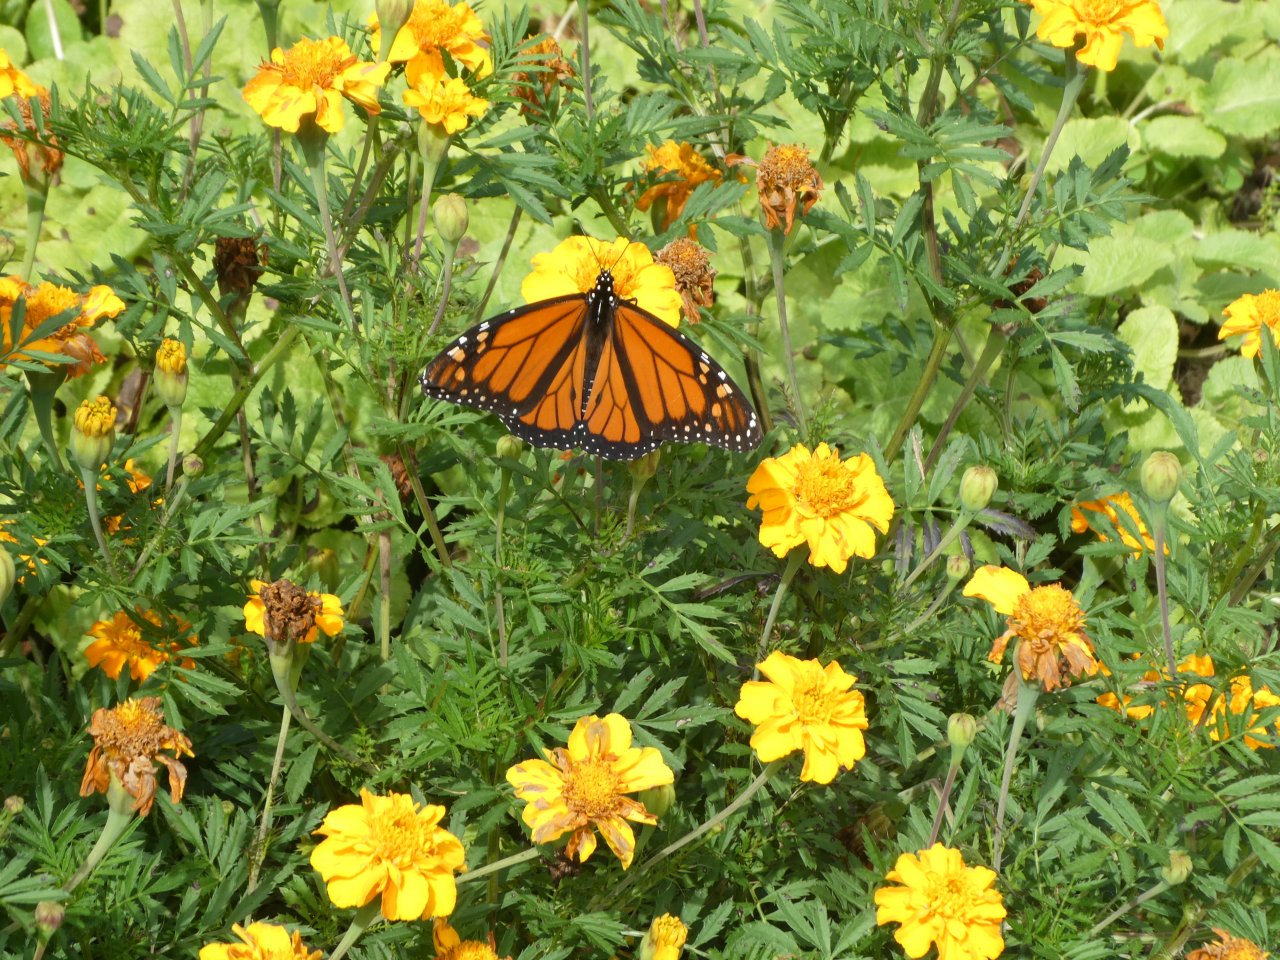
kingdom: Animalia
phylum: Arthropoda
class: Insecta
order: Lepidoptera
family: Nymphalidae
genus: Danaus
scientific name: Danaus plexippus
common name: Monarch
